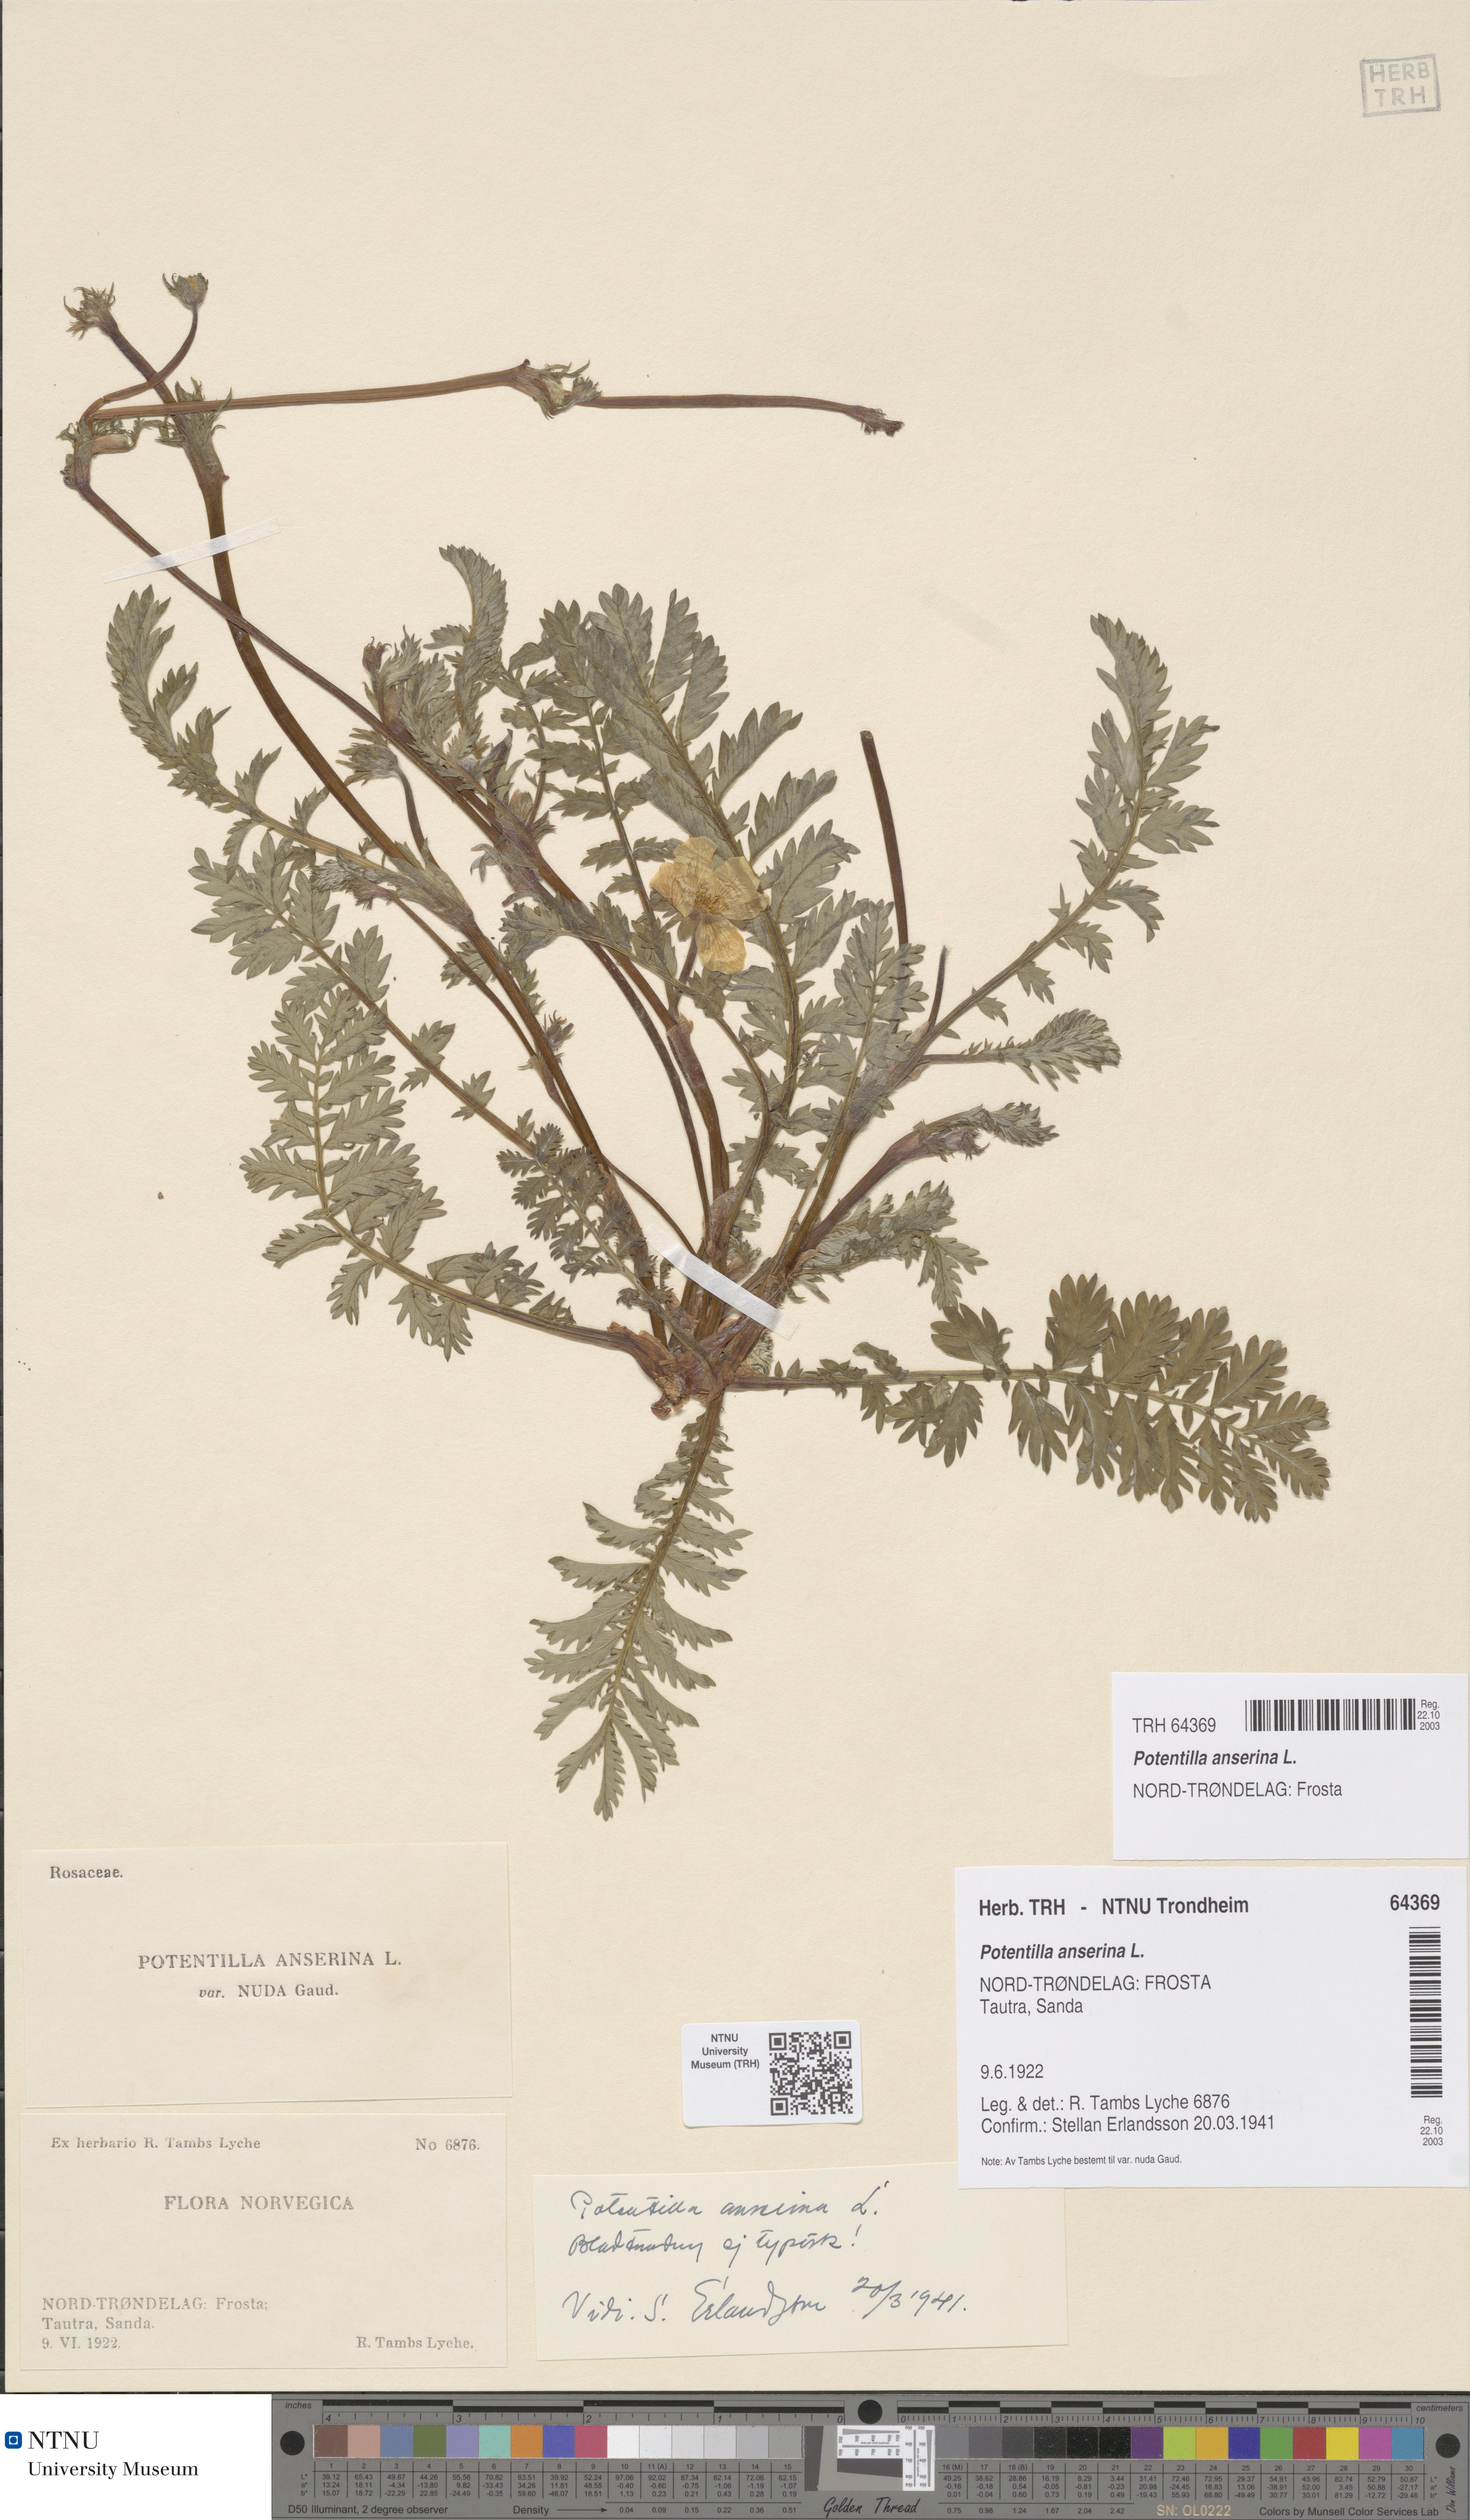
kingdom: Plantae
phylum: Tracheophyta
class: Magnoliopsida
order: Rosales
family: Rosaceae
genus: Argentina
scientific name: Argentina anserina
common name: Common silverweed
